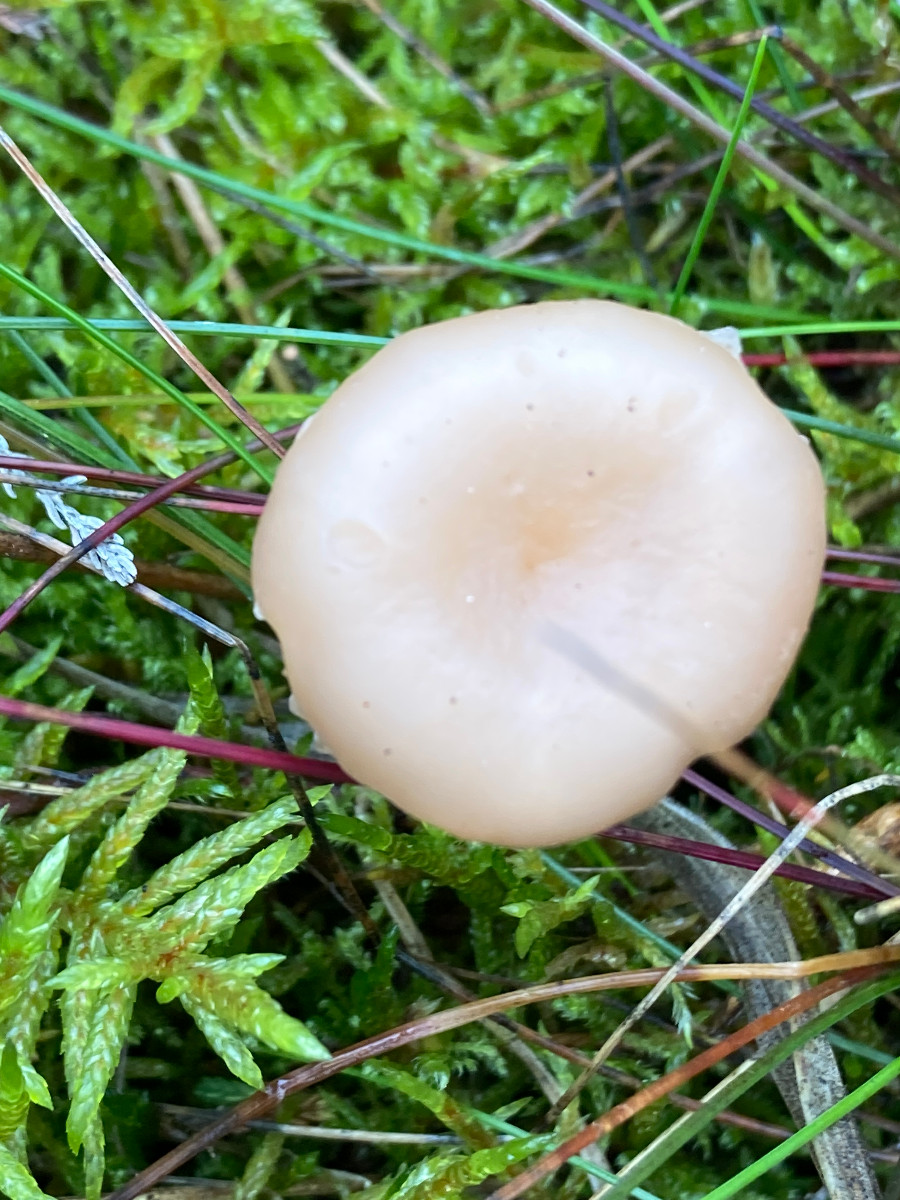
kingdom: Fungi
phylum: Basidiomycota
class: Agaricomycetes
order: Agaricales
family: Hygrophoraceae
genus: Cuphophyllus
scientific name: Cuphophyllus
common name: vokshat
